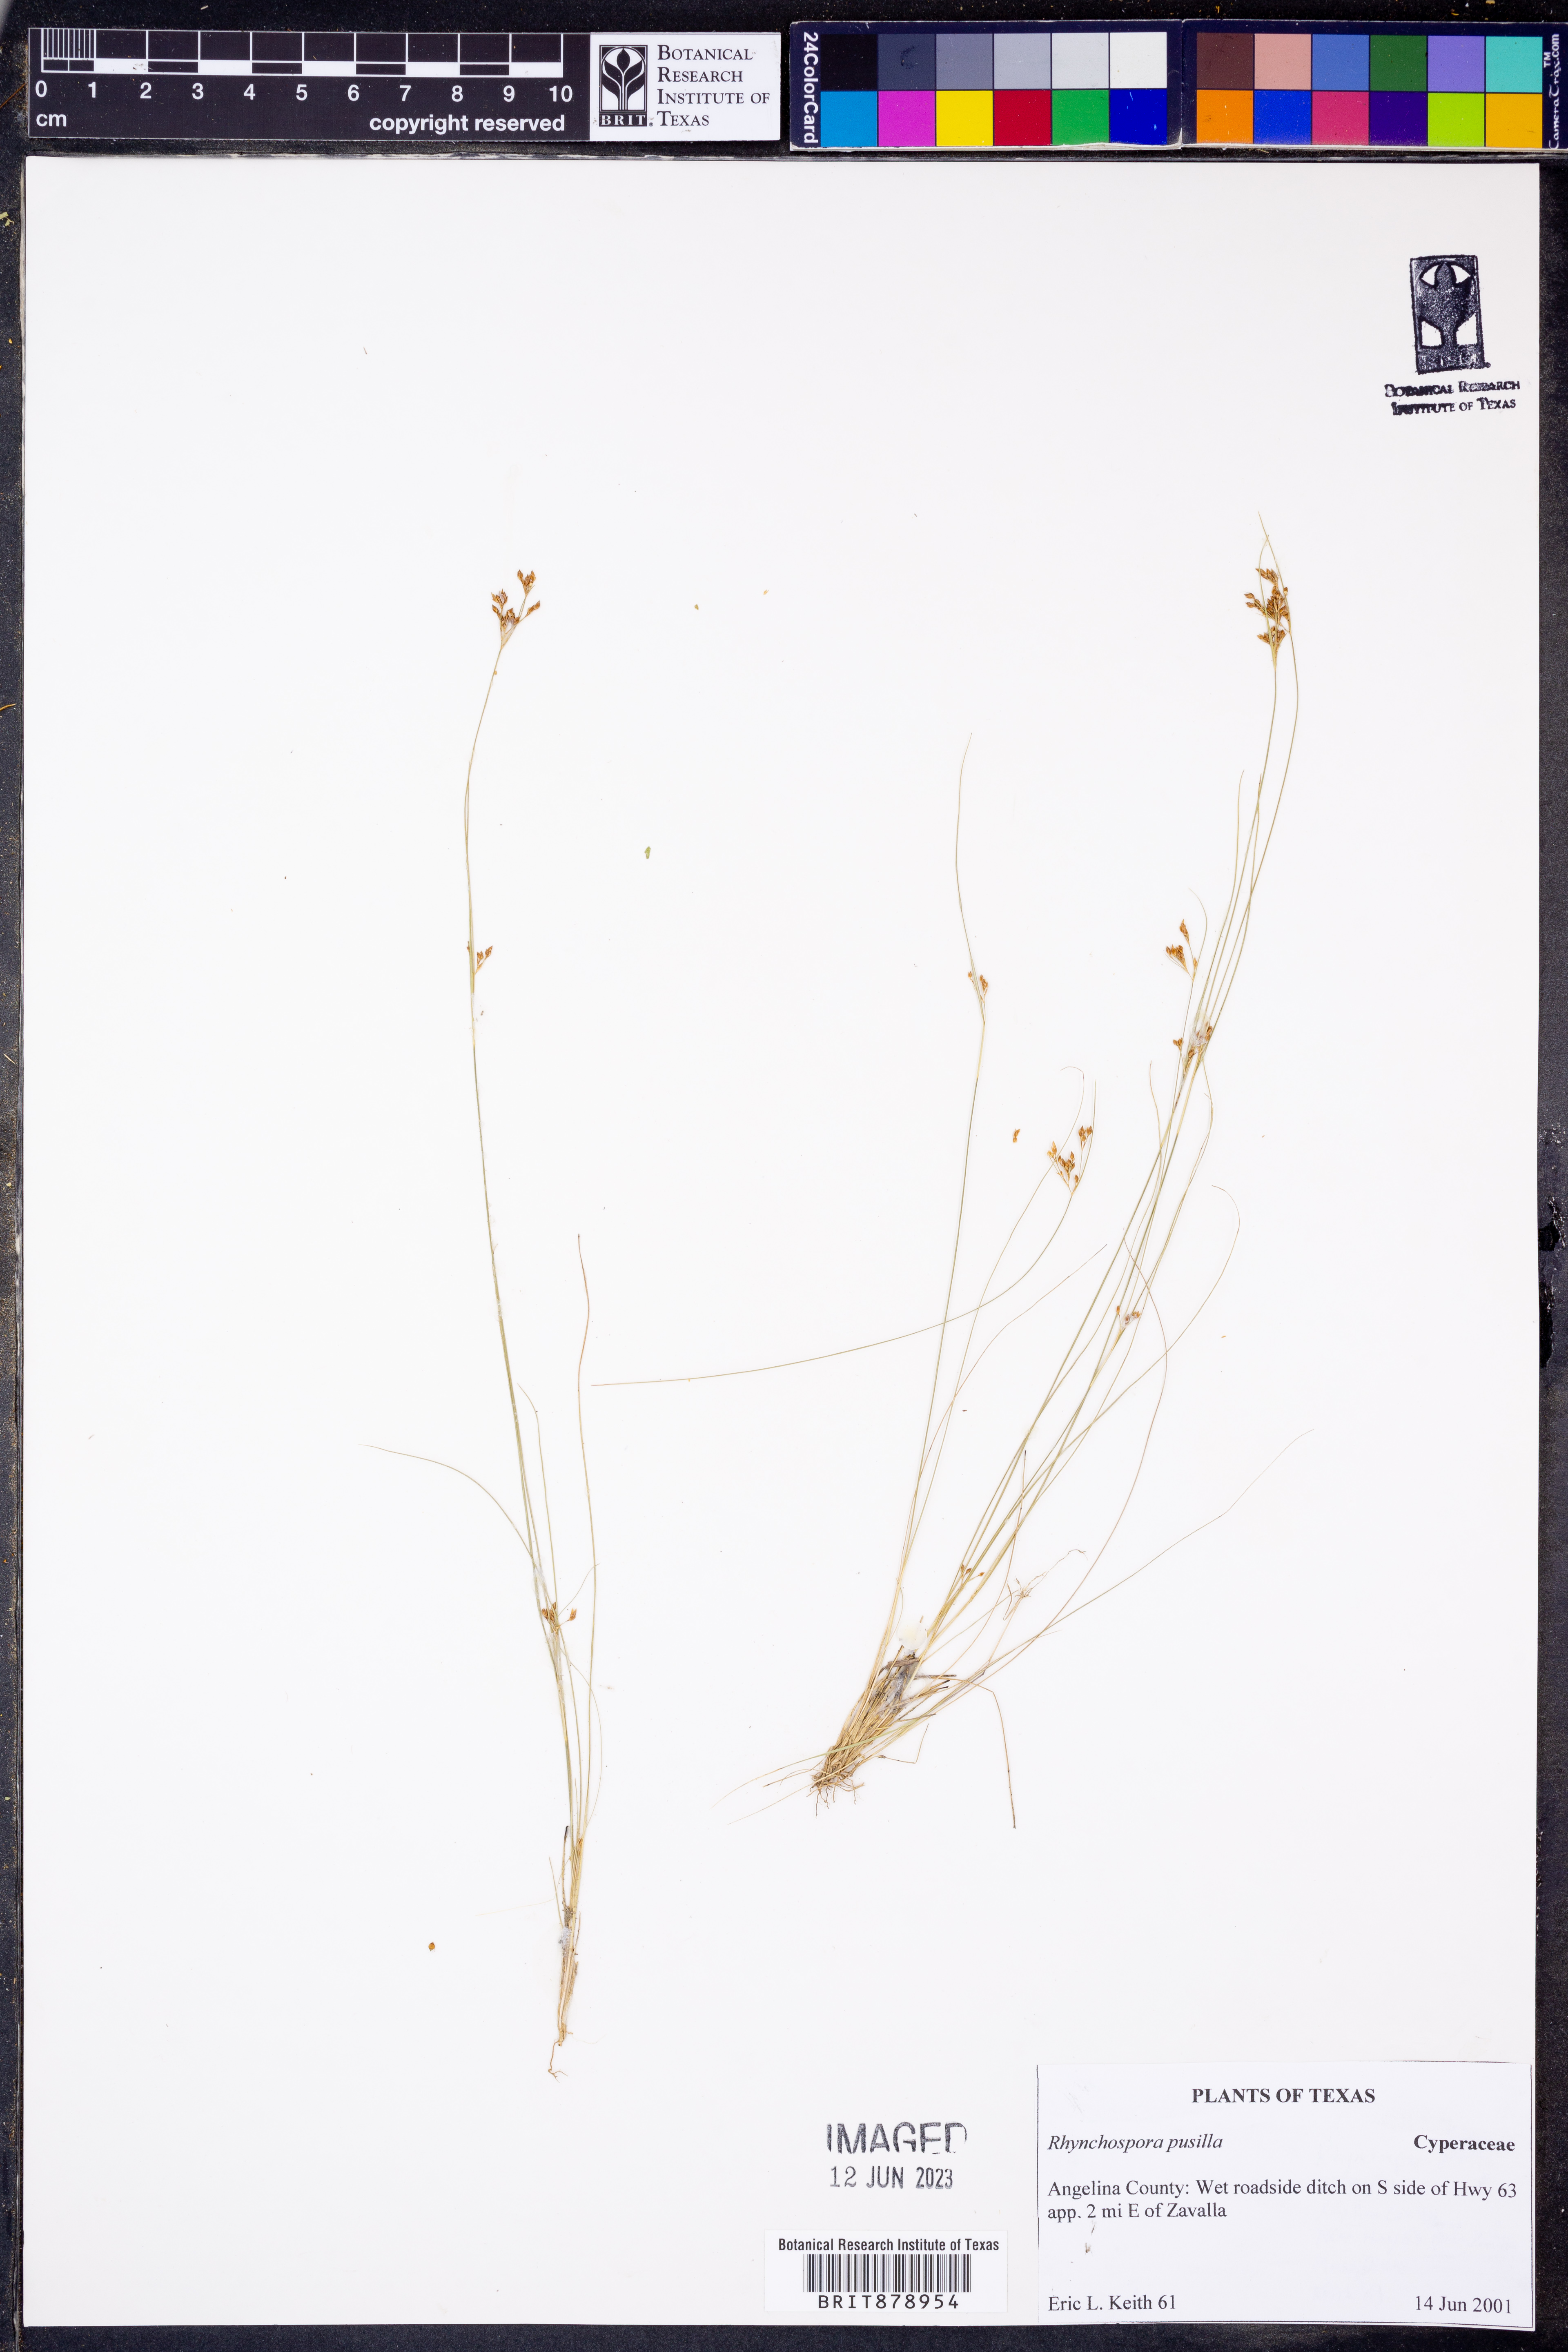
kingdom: Plantae
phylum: Tracheophyta
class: Liliopsida
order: Poales
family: Cyperaceae
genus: Rhynchospora
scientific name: Rhynchospora pusilla
